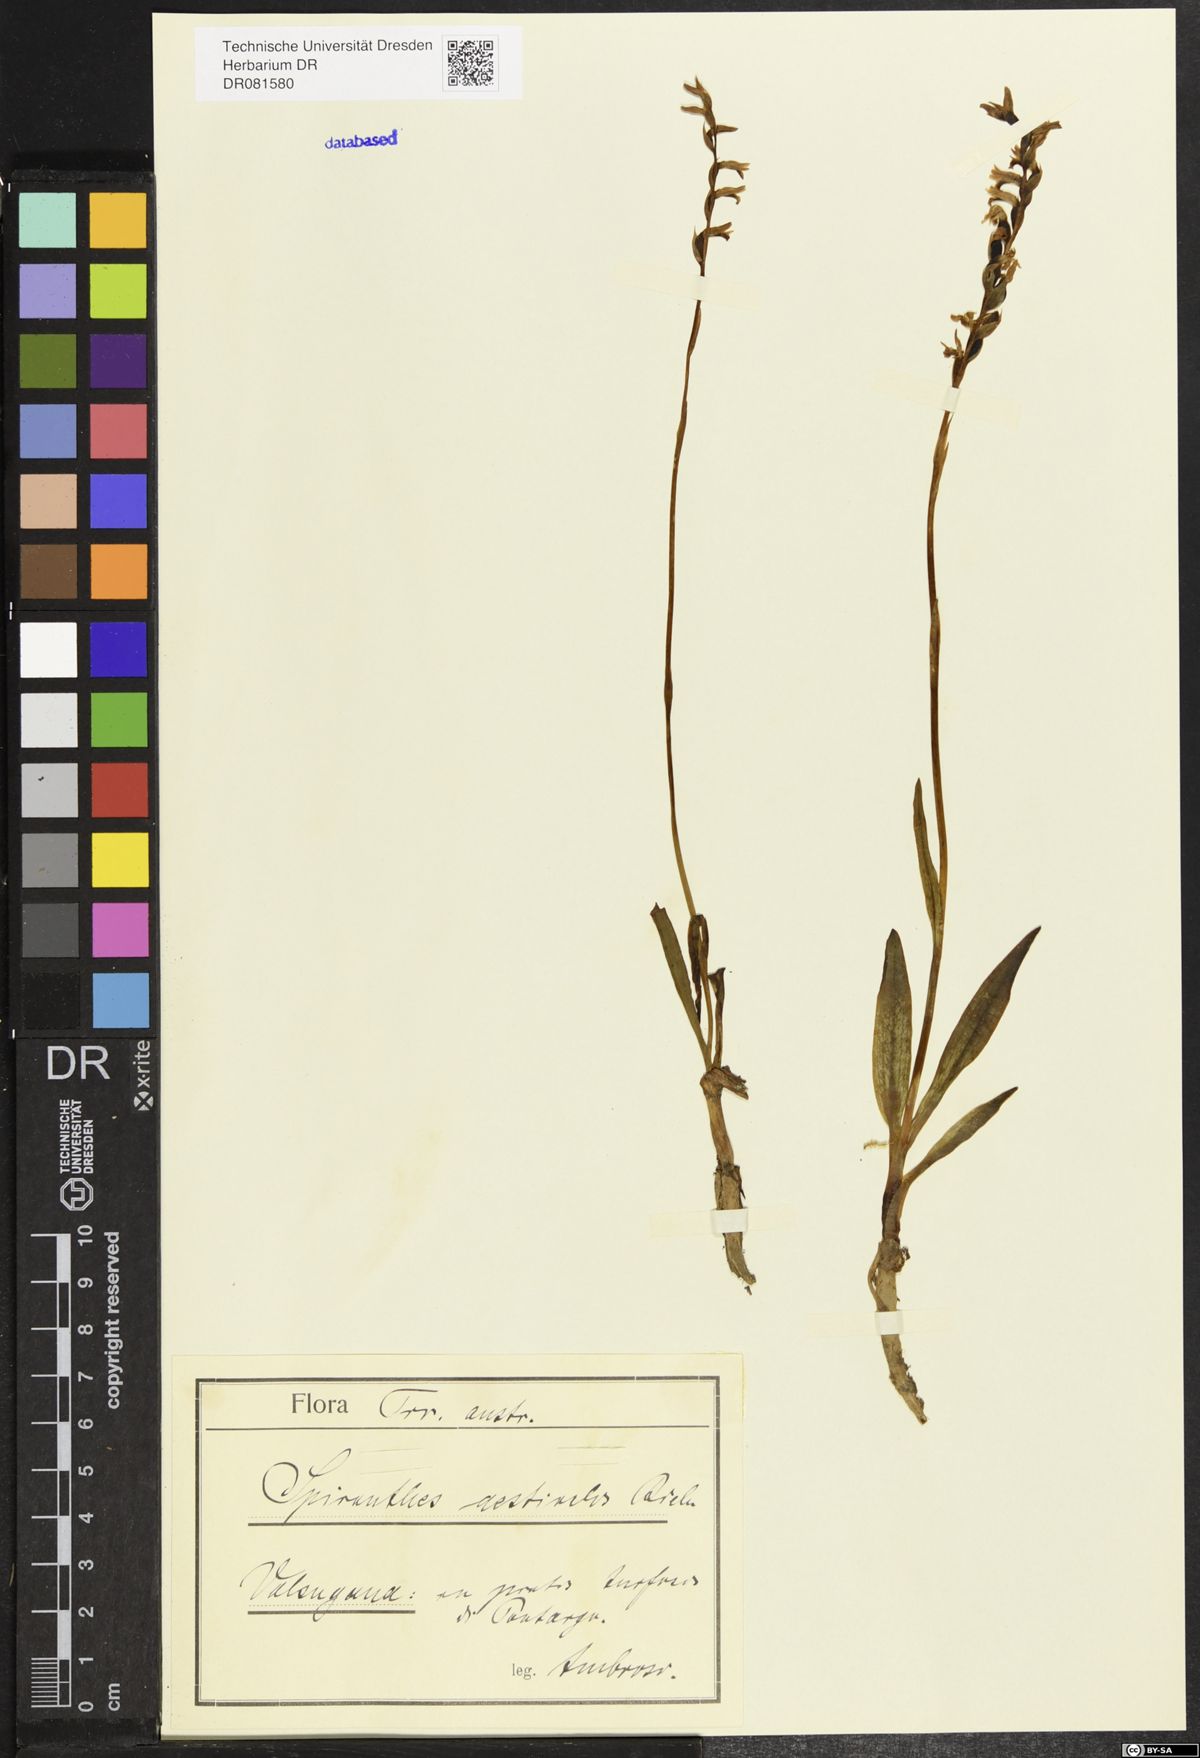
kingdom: Plantae
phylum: Tracheophyta
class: Liliopsida
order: Asparagales
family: Orchidaceae
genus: Spiranthes
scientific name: Spiranthes aestivalis
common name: Summer lady's-tresses
